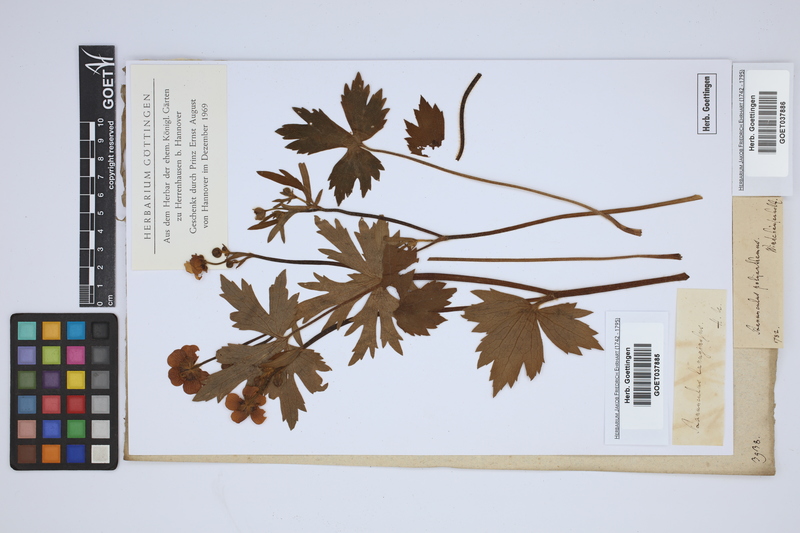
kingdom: Plantae
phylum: Tracheophyta
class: Magnoliopsida
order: Ranunculales
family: Ranunculaceae
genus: Ranunculus
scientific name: Ranunculus lanuginosus
